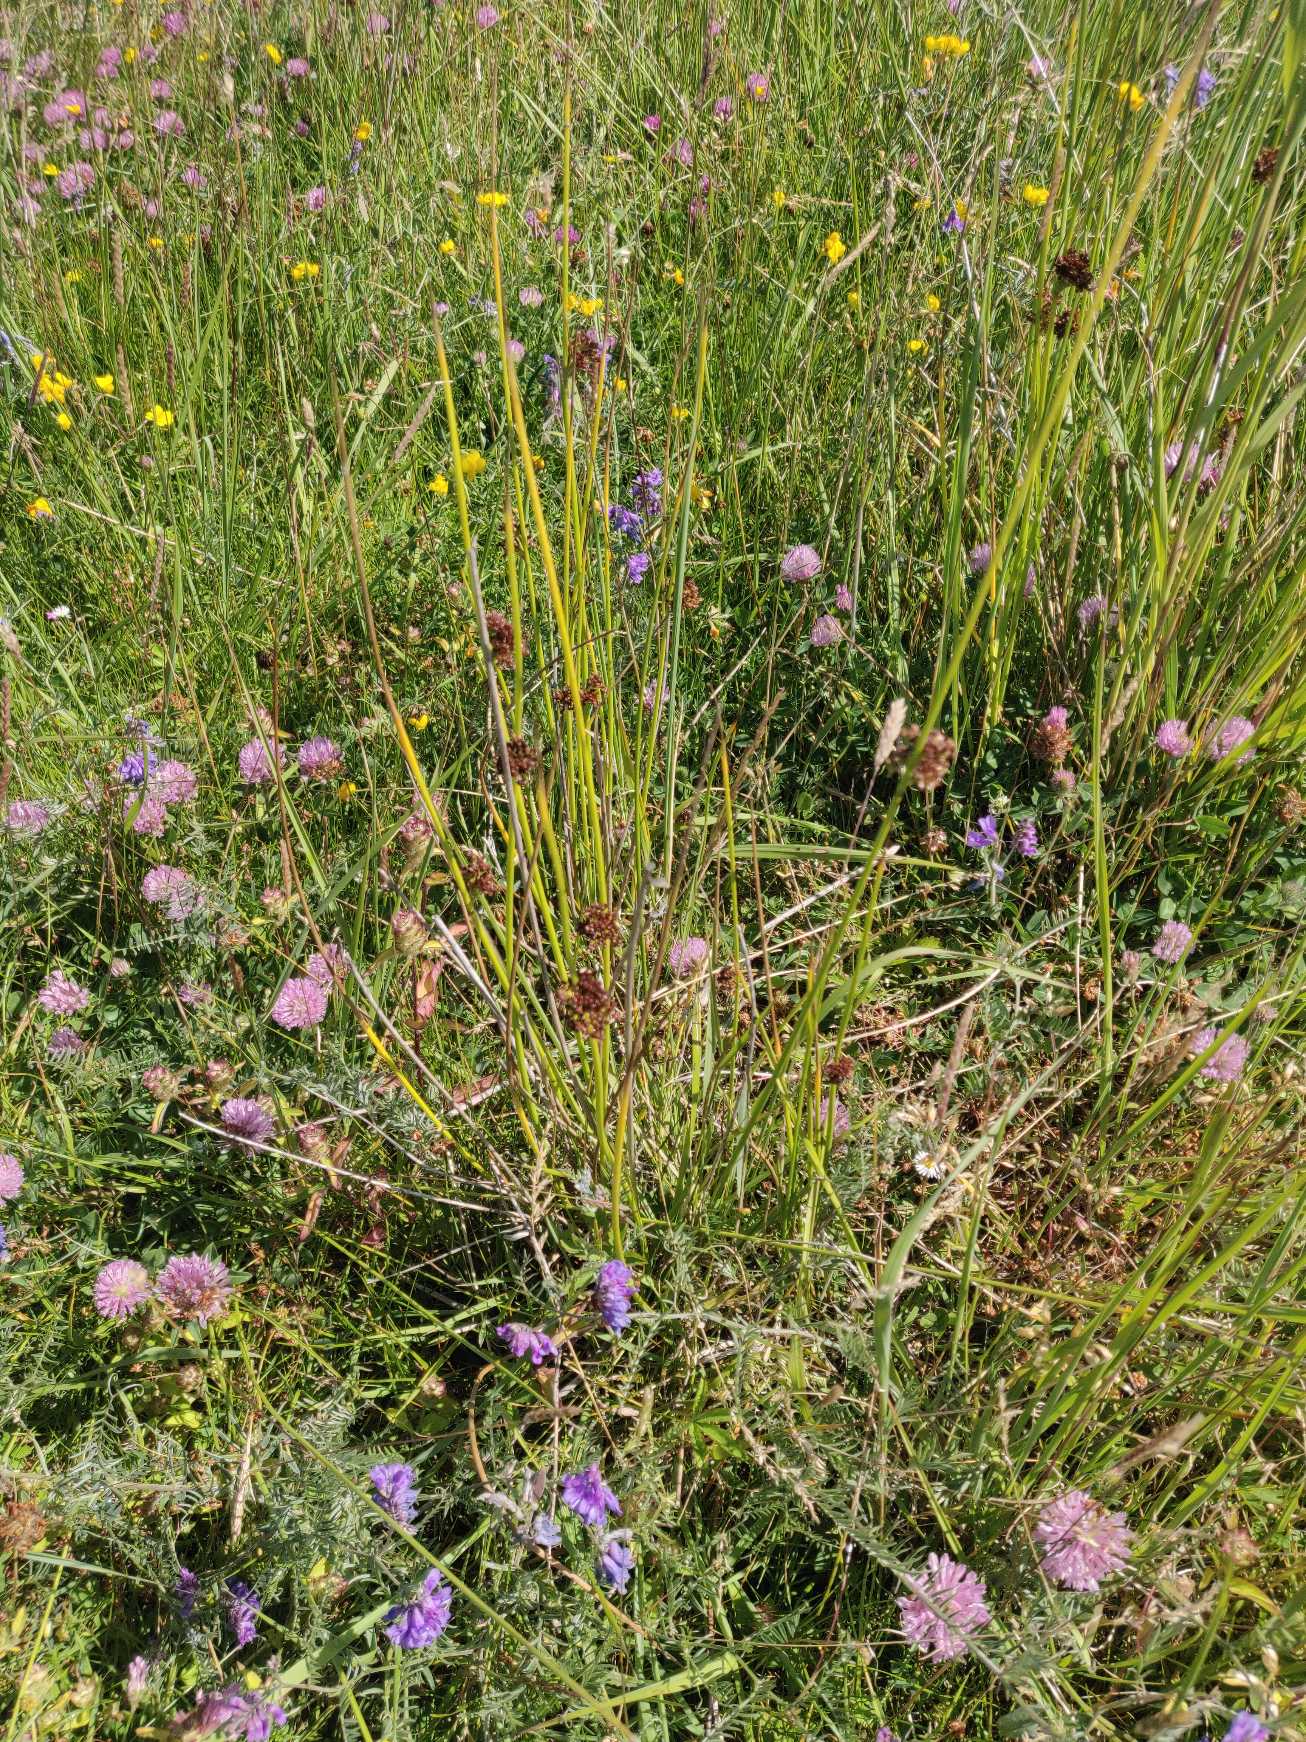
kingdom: Plantae
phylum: Tracheophyta
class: Liliopsida
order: Poales
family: Juncaceae
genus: Juncus
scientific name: Juncus effusus
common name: Lyse-siv
